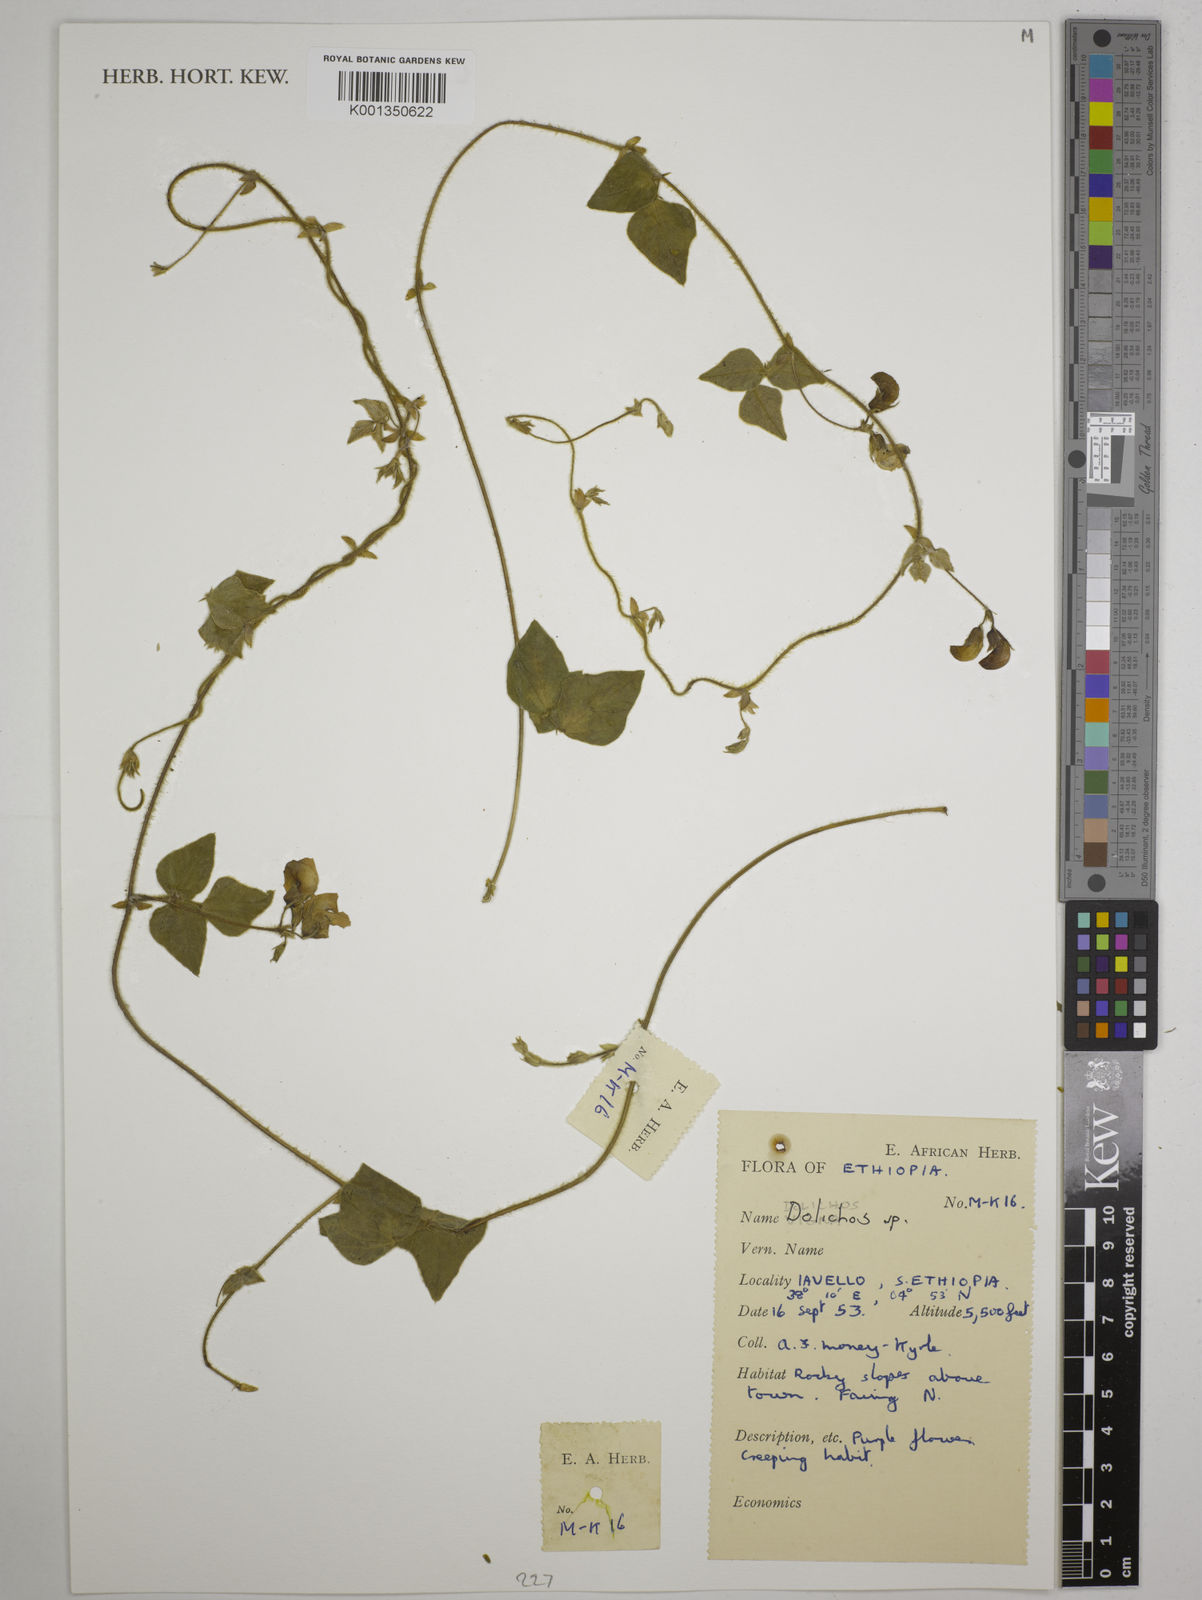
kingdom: Plantae
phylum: Tracheophyta
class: Magnoliopsida
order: Fabales
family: Fabaceae
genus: Dolichos
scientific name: Dolichos
